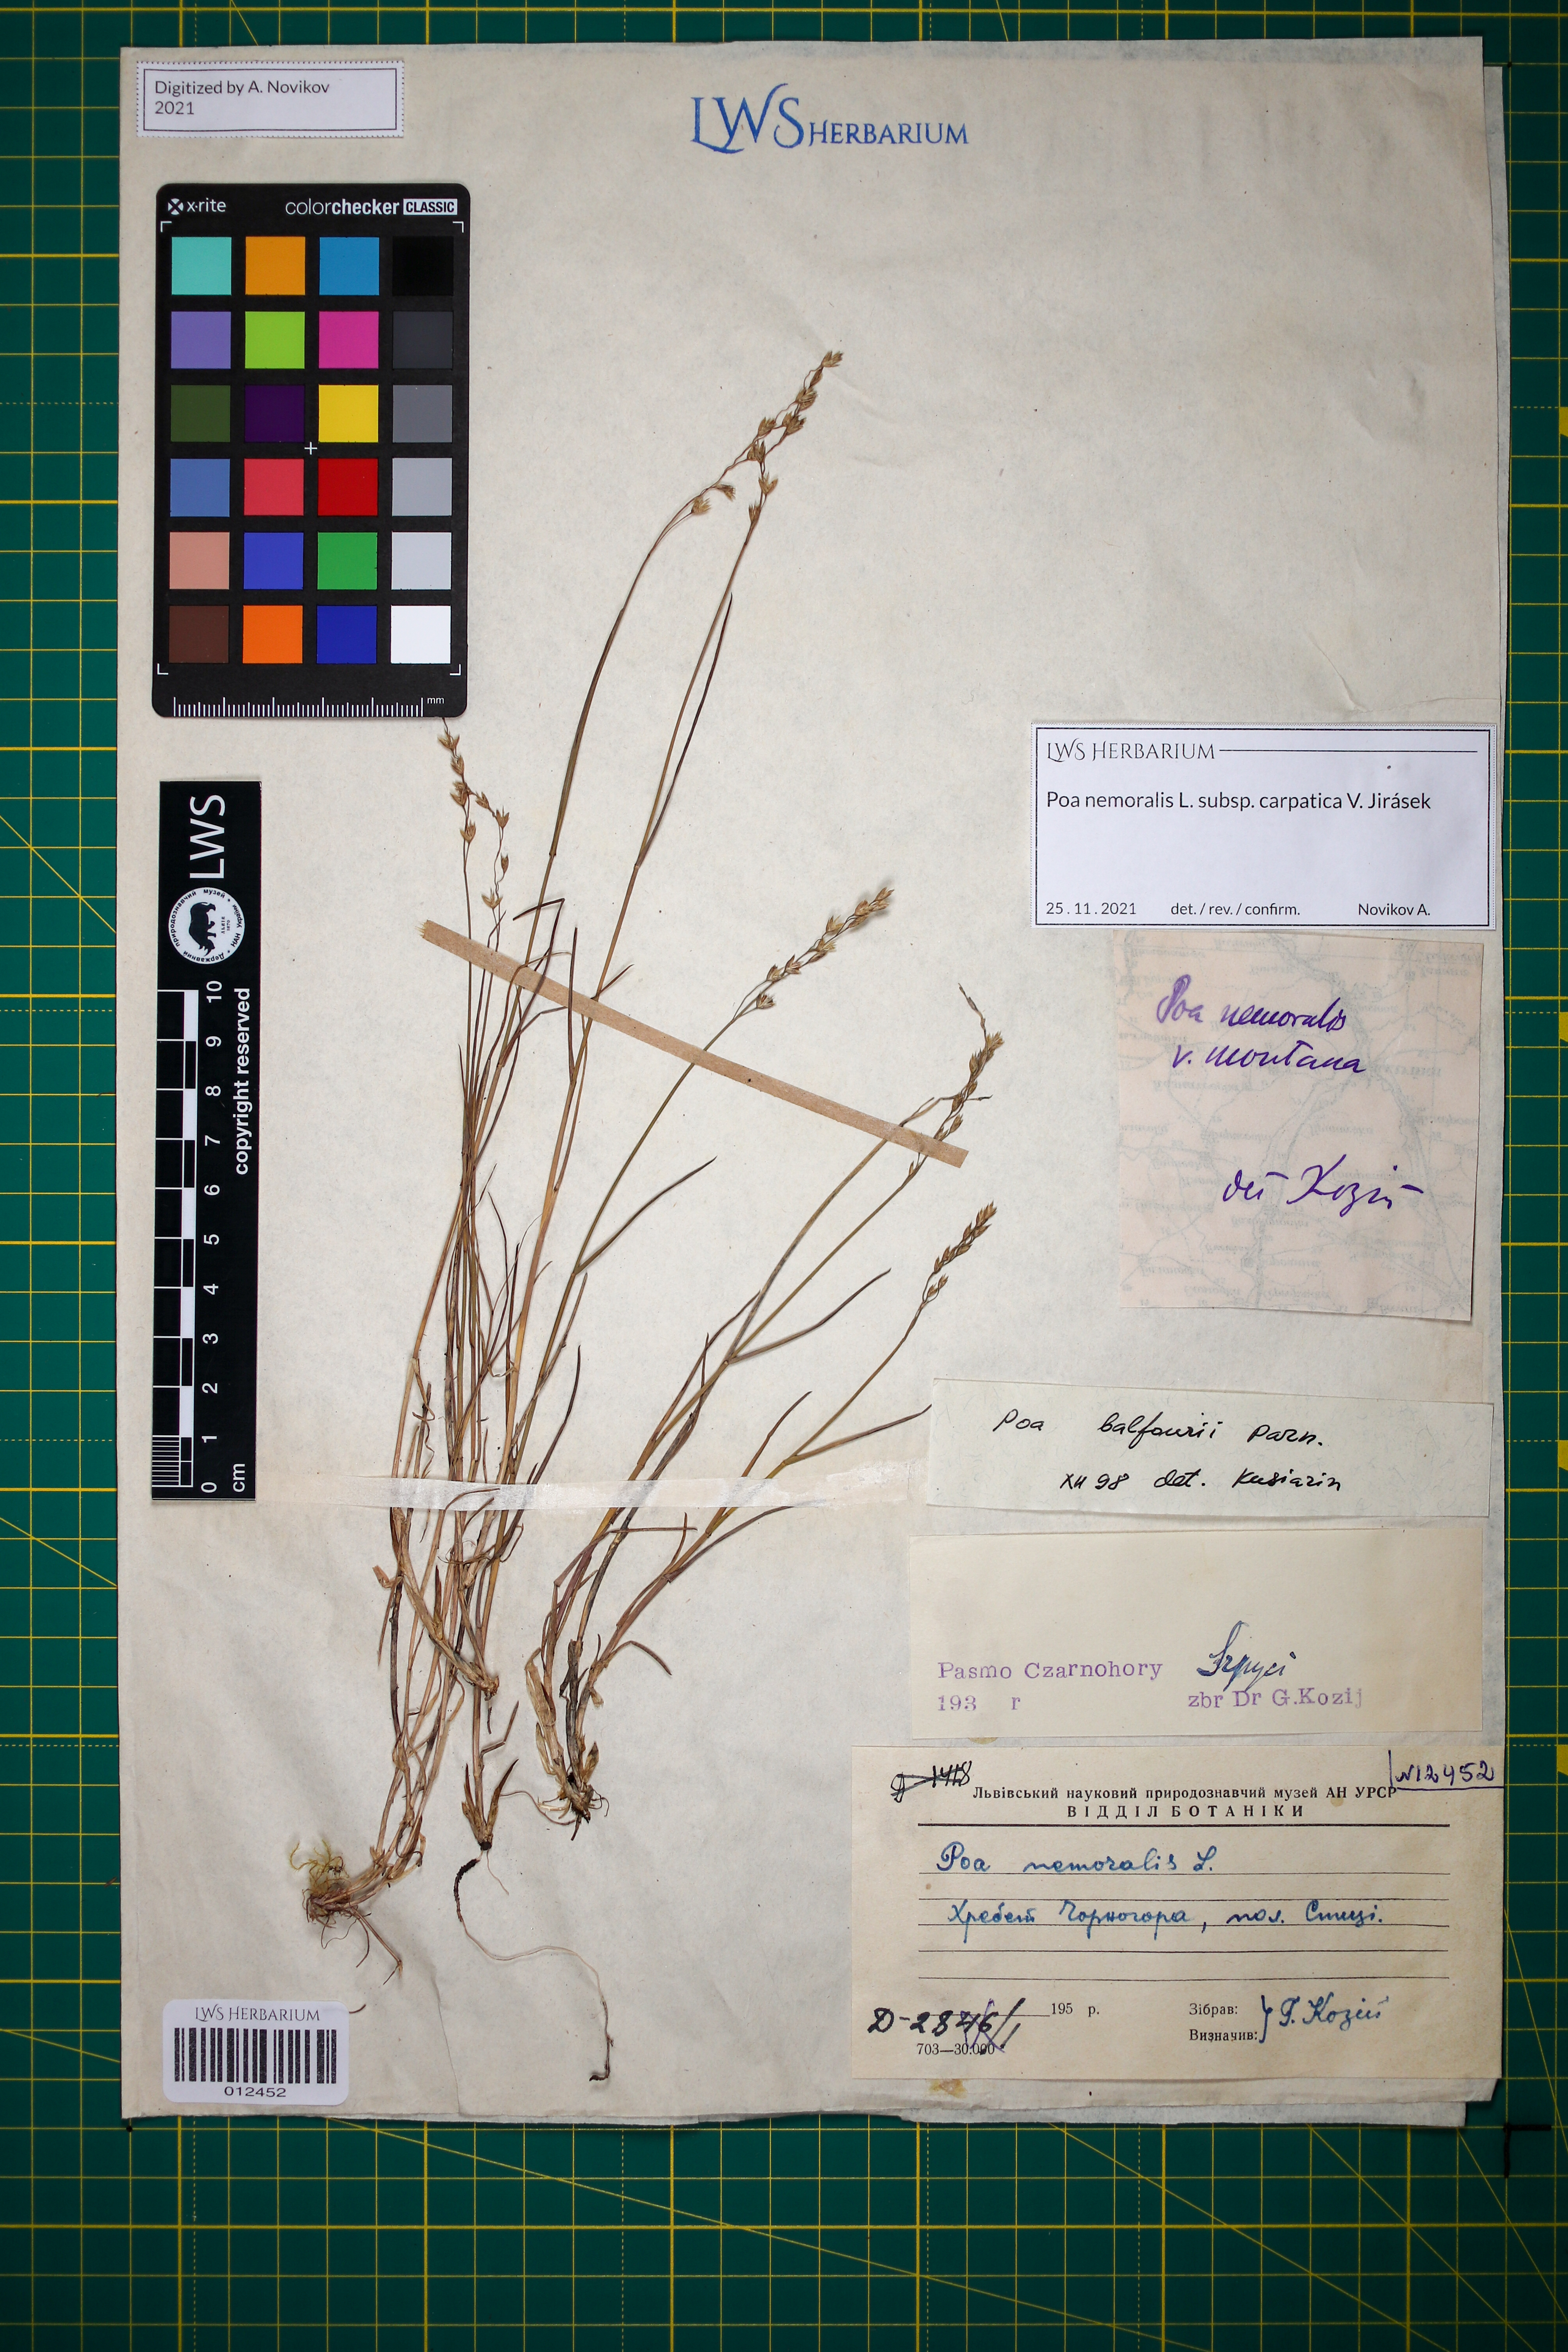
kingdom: Plantae
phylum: Tracheophyta
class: Liliopsida
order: Poales
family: Poaceae
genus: Poa
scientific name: Poa carpatica
